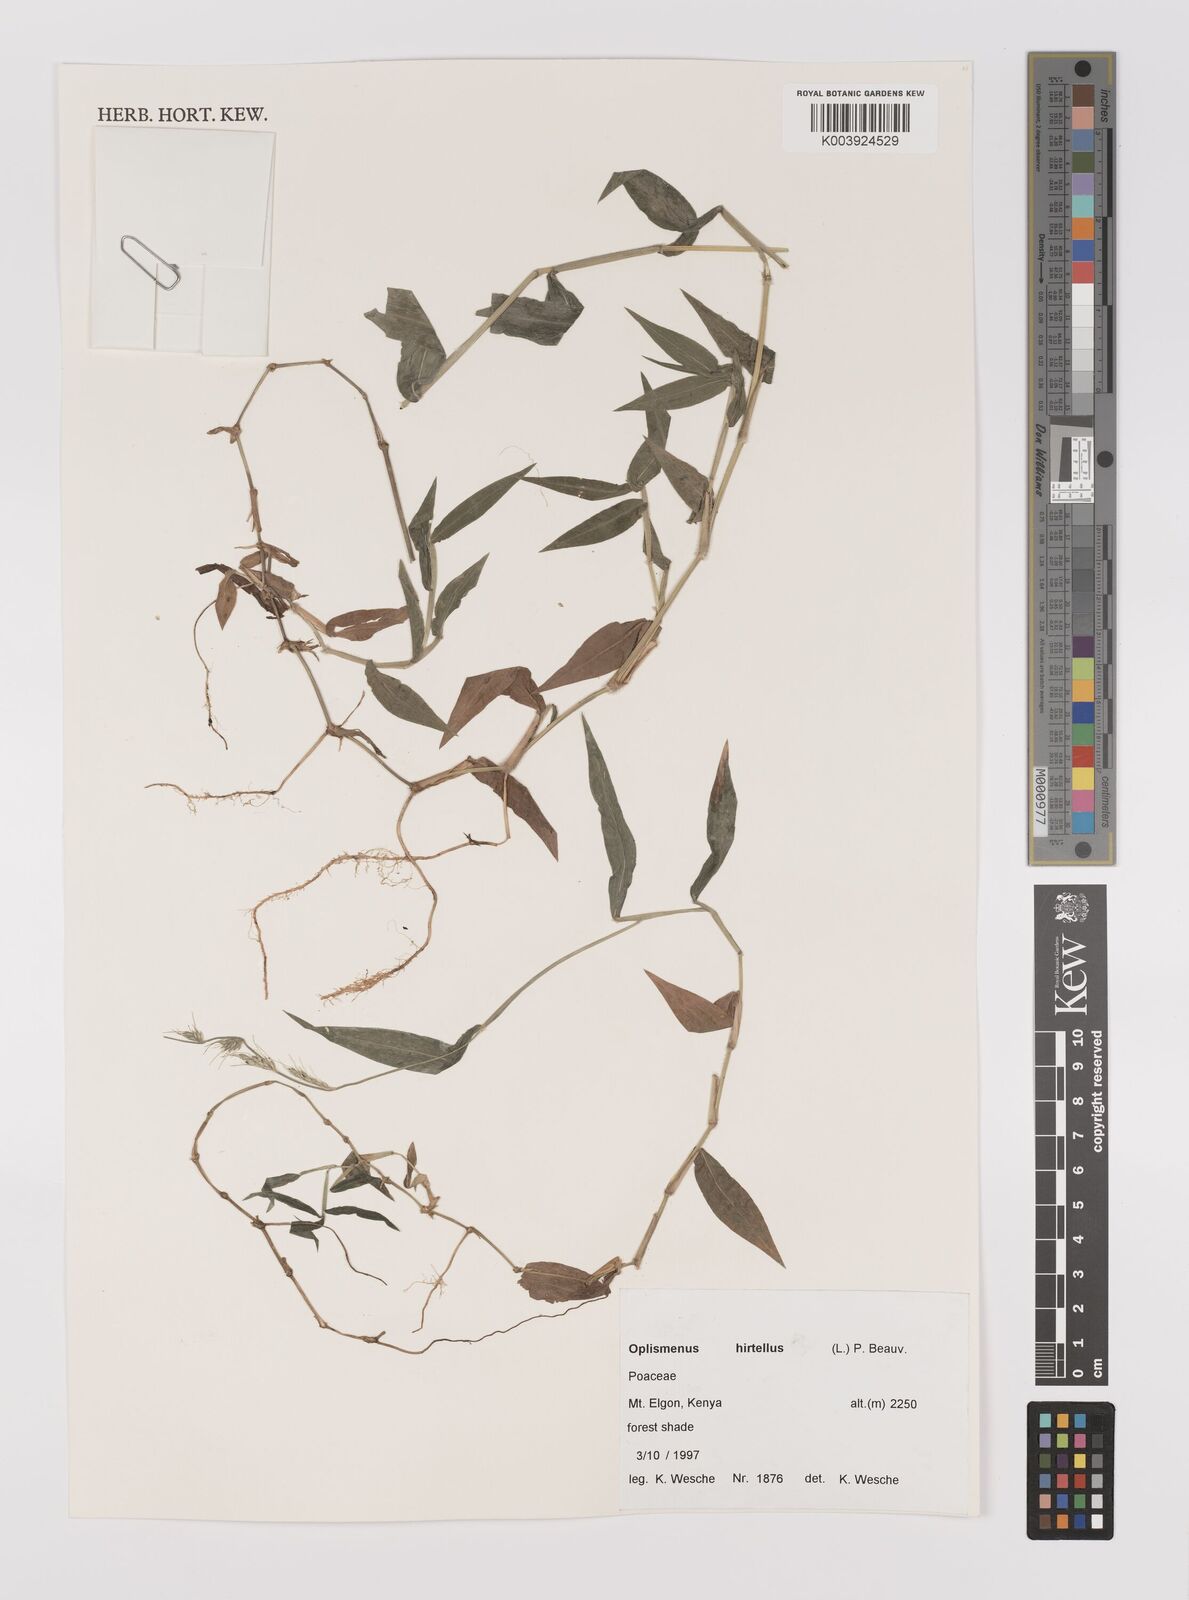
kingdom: Plantae
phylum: Tracheophyta
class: Liliopsida
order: Poales
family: Poaceae
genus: Oplismenus
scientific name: Oplismenus hirtellus
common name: Basketgrass
